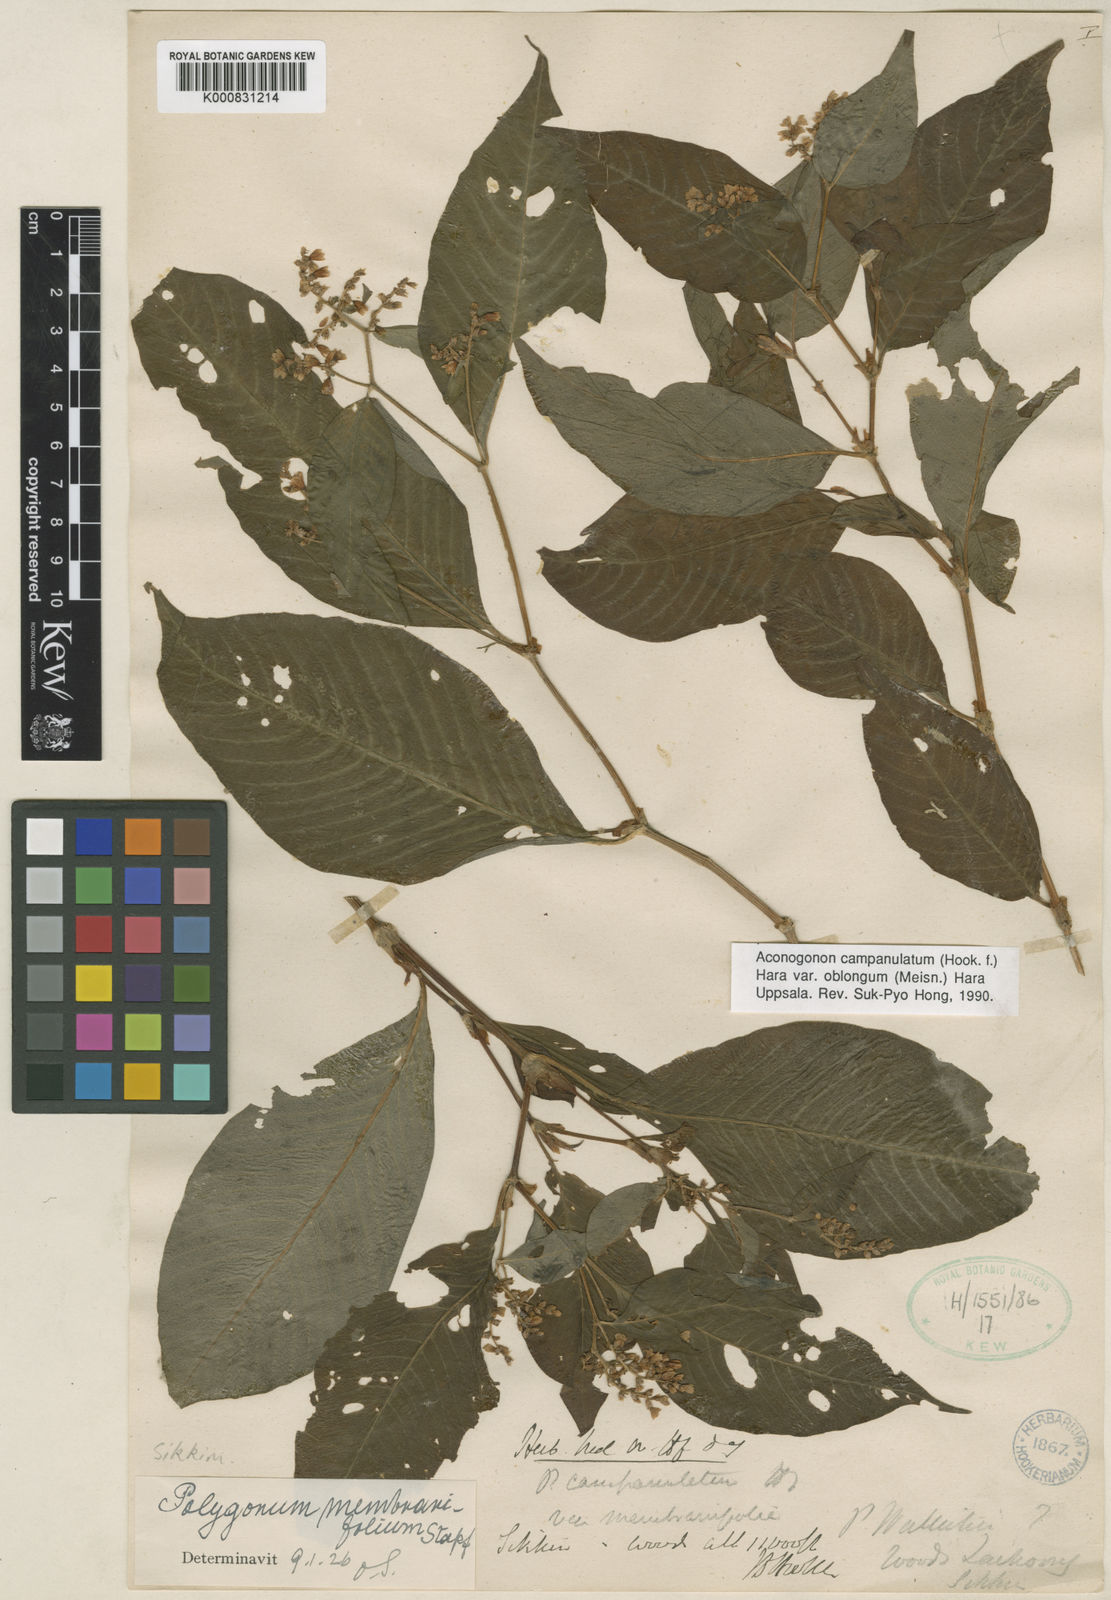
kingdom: Plantae
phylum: Tracheophyta
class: Magnoliopsida
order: Caryophyllales
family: Polygonaceae
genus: Koenigia
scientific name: Koenigia campanulata
